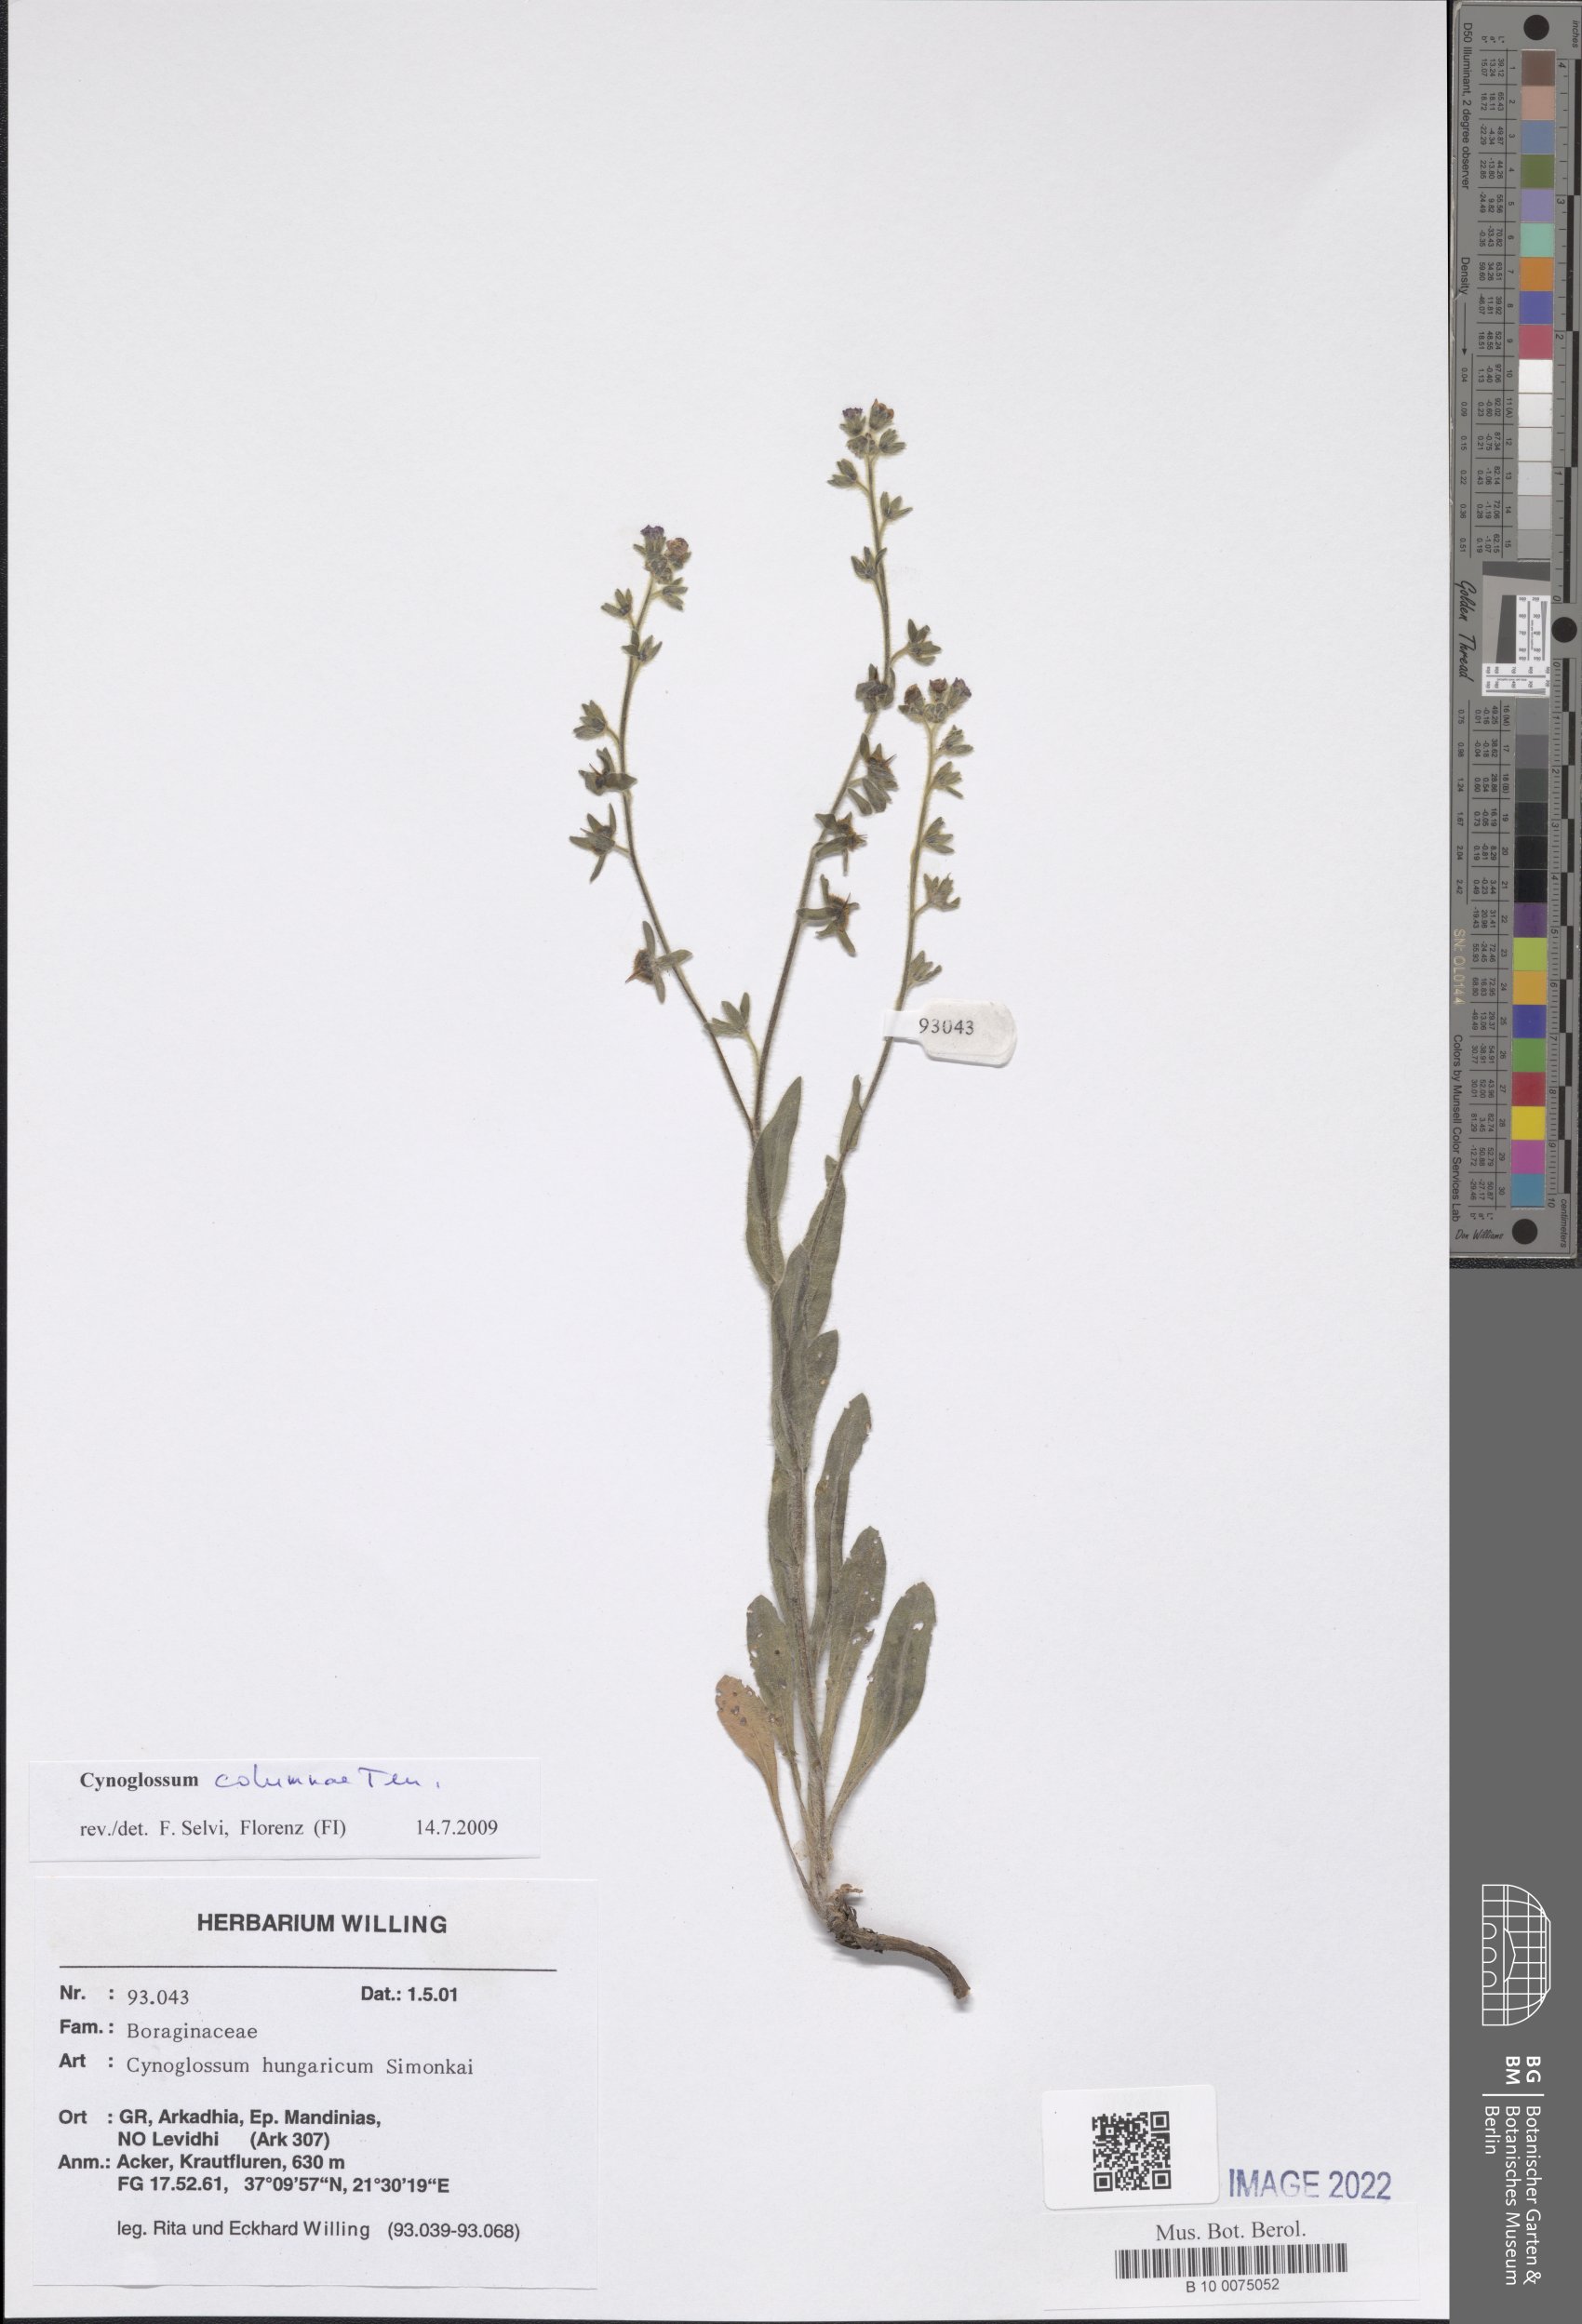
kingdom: Plantae
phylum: Tracheophyta
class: Magnoliopsida
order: Boraginales
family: Boraginaceae
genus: Rindera
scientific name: Rindera columnae
